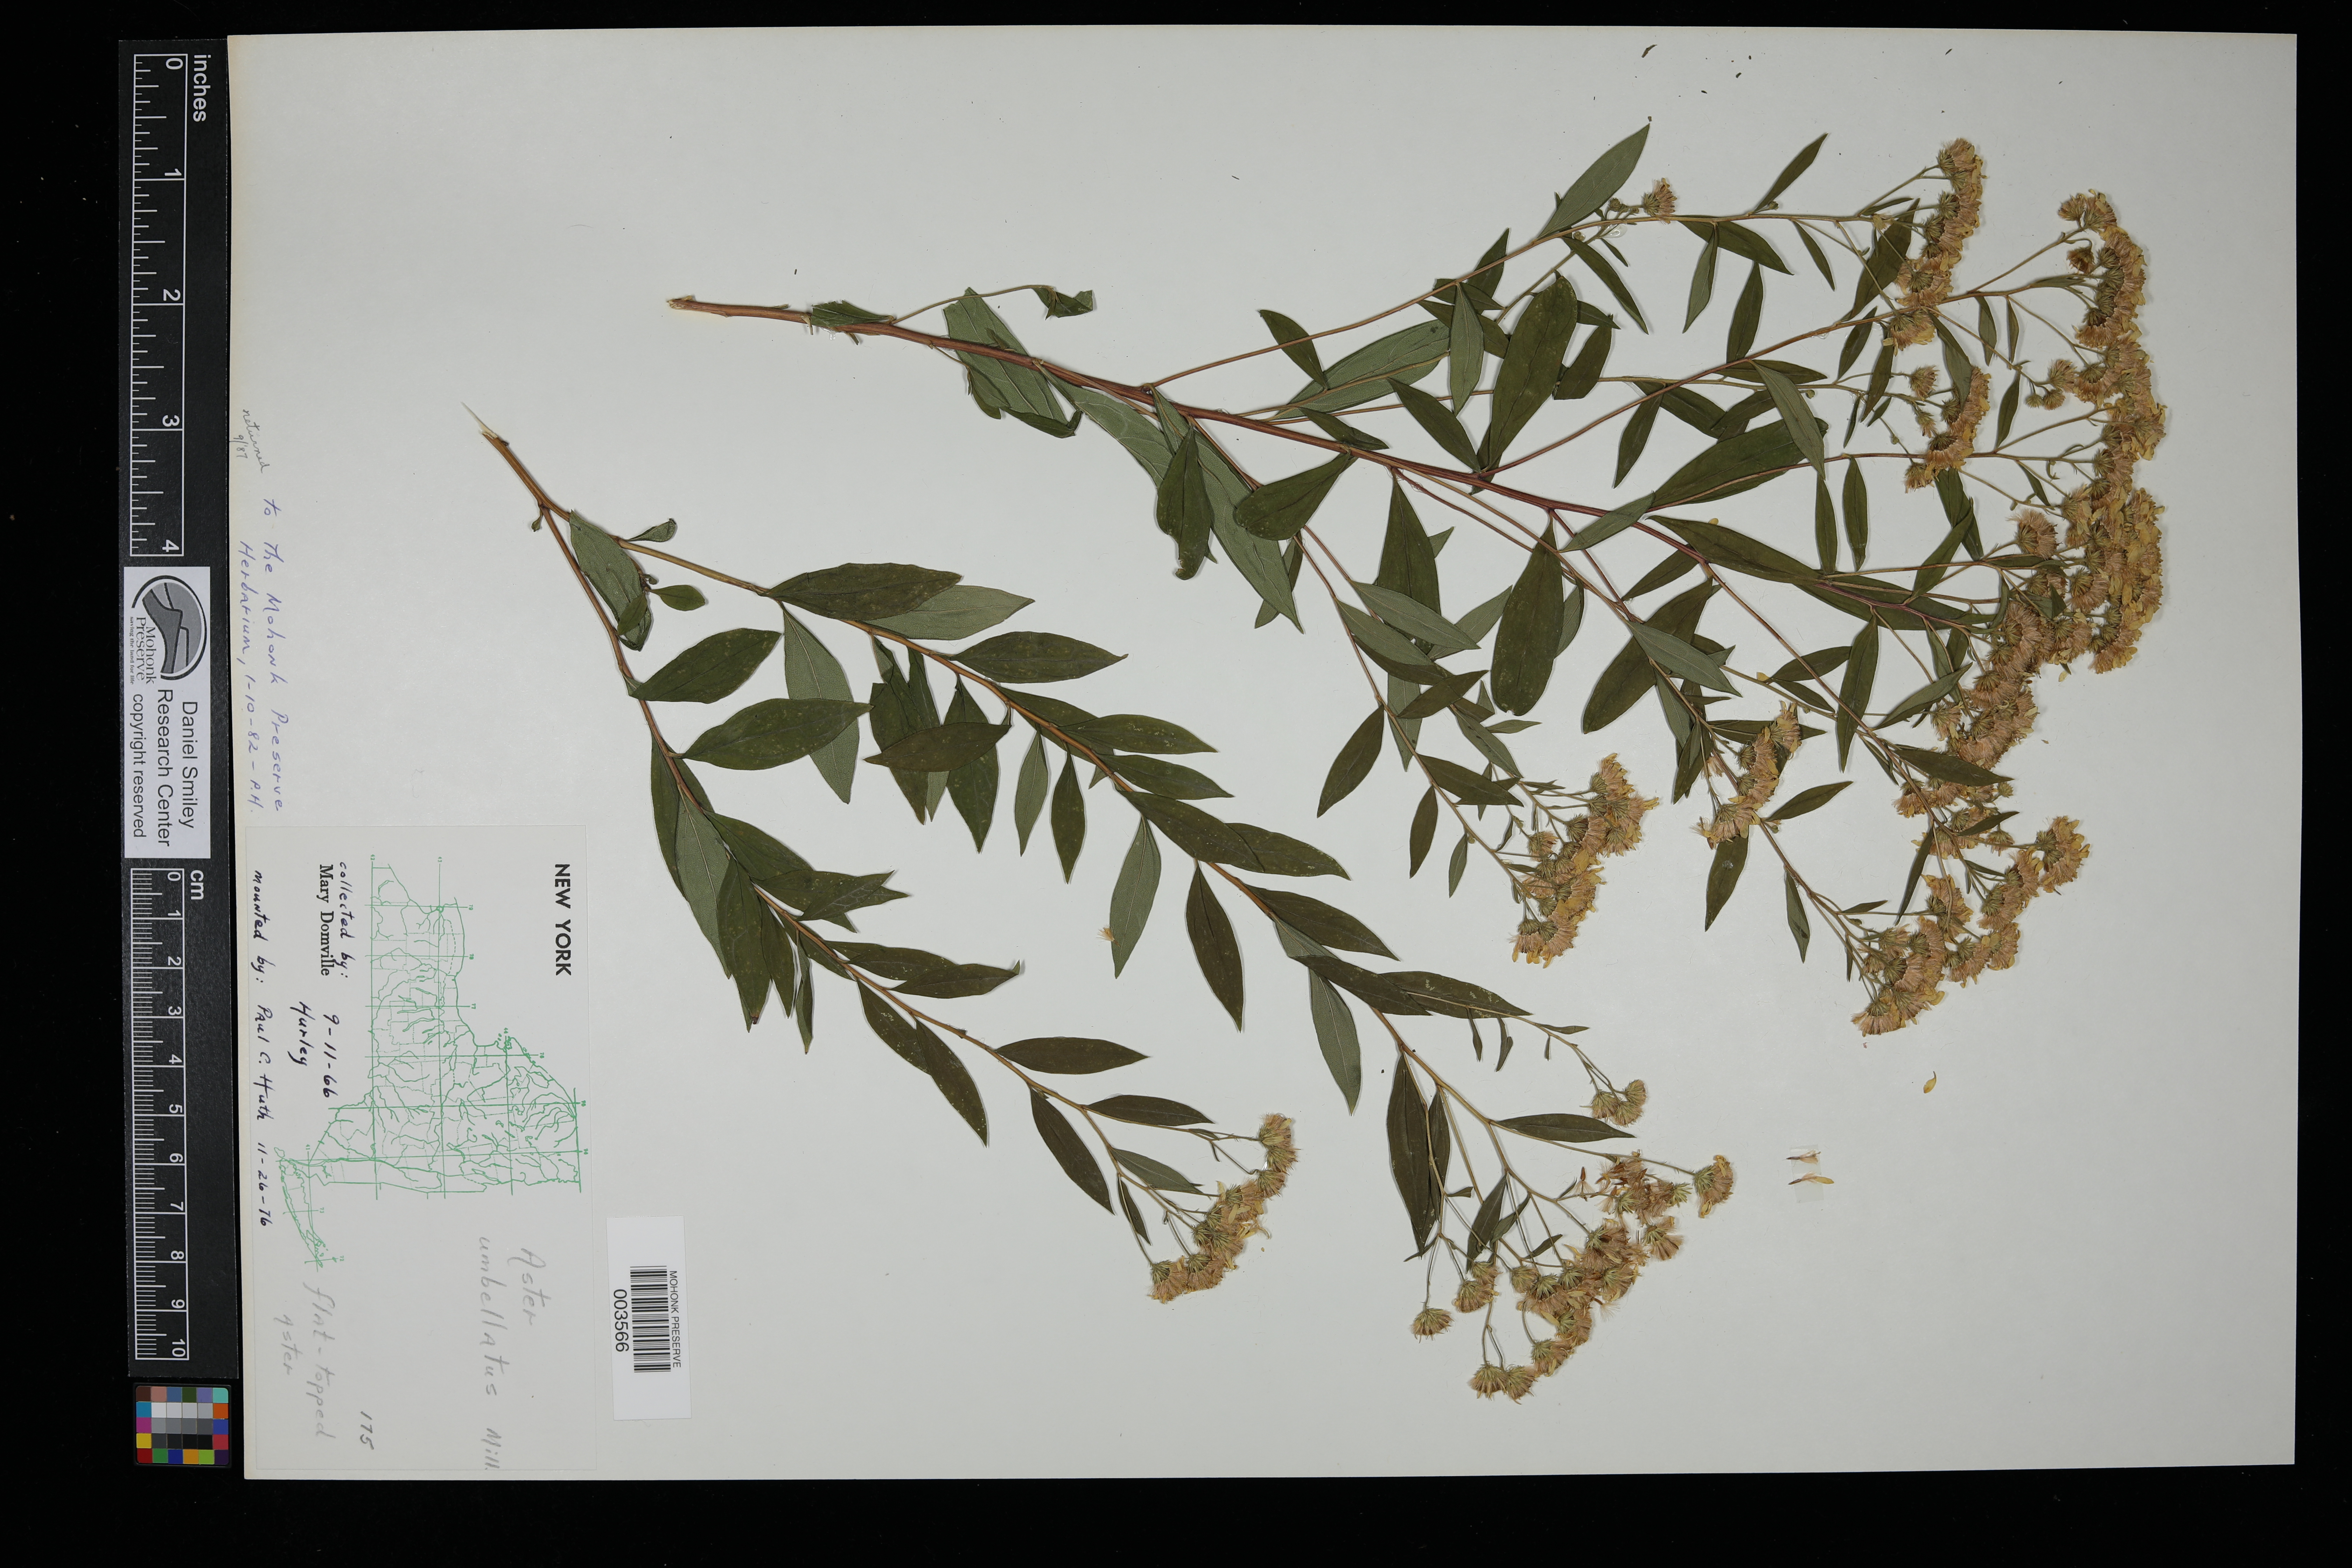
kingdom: Plantae
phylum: Tracheophyta
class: Magnoliopsida
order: Asterales
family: Asteraceae
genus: Doellingeria
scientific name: Doellingeria umbellata
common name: Flat-top white aster
